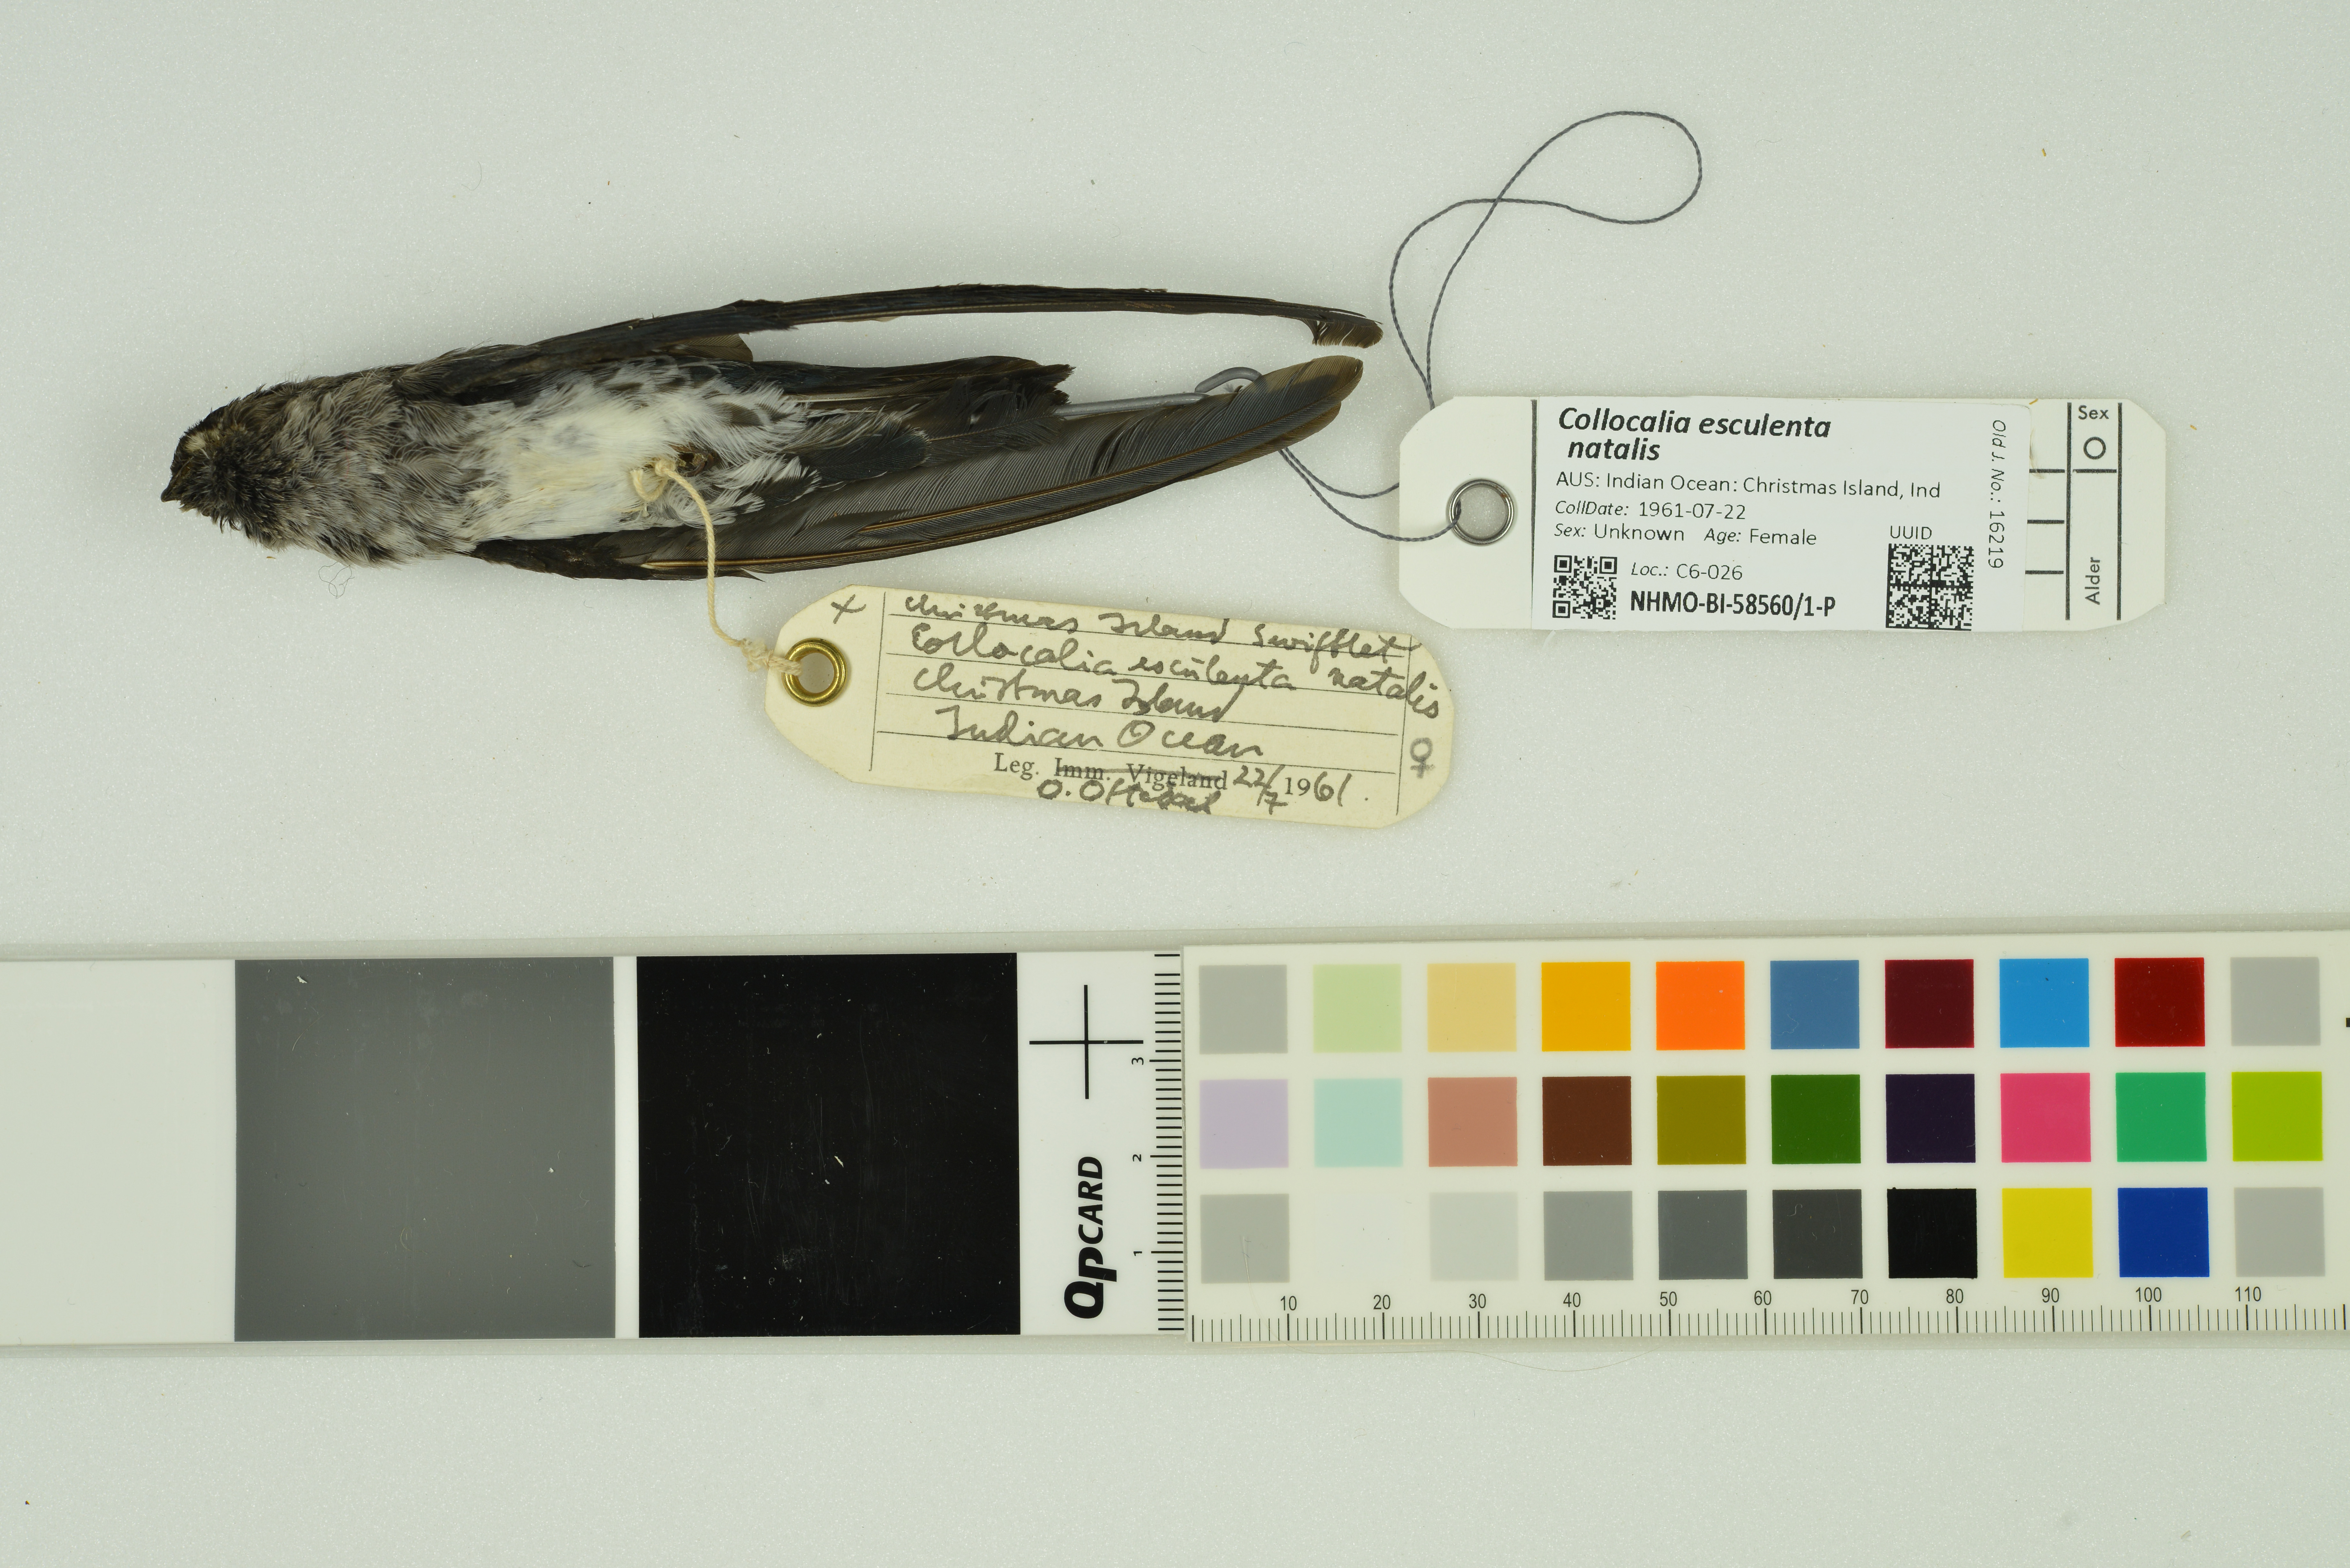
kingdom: Animalia
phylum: Chordata
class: Aves
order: Apodiformes
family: Apodidae
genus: Collocalia
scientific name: Collocalia natalis
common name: Christmas island swiftlet
